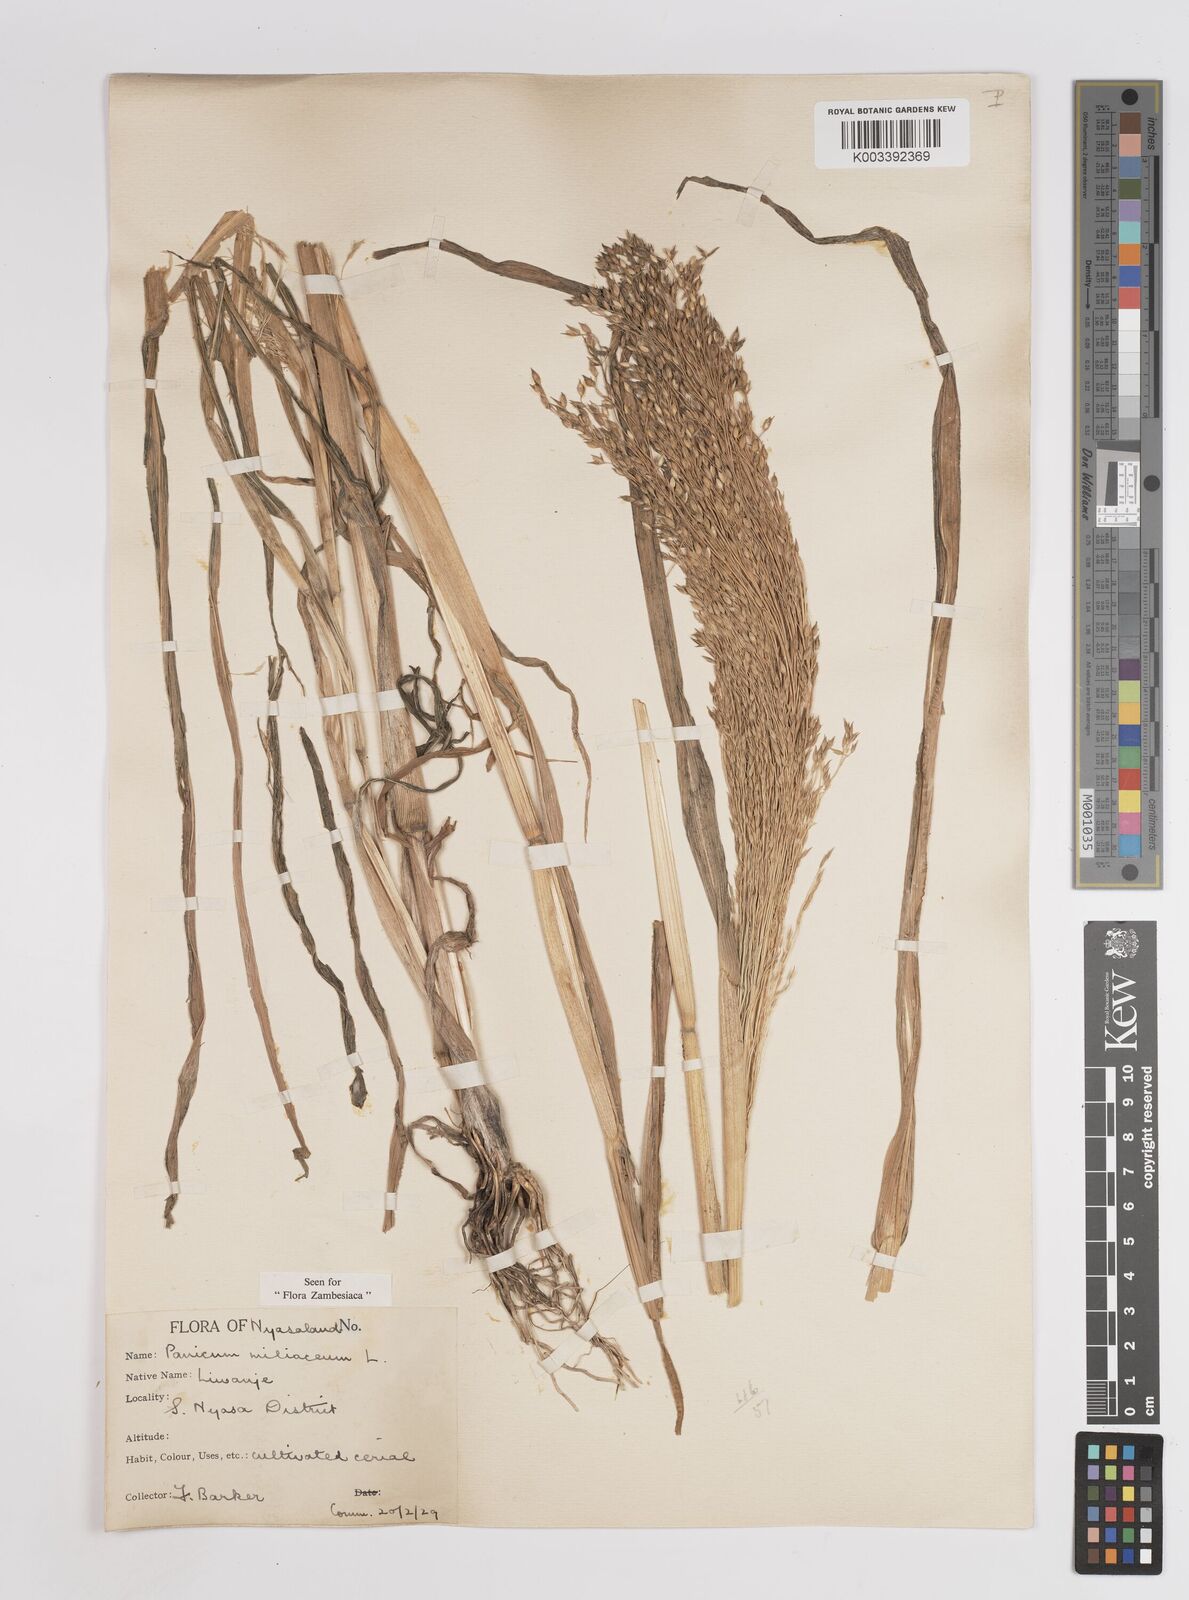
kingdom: Plantae
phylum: Tracheophyta
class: Liliopsida
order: Poales
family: Poaceae
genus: Panicum
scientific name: Panicum miliaceum
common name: Common millet
